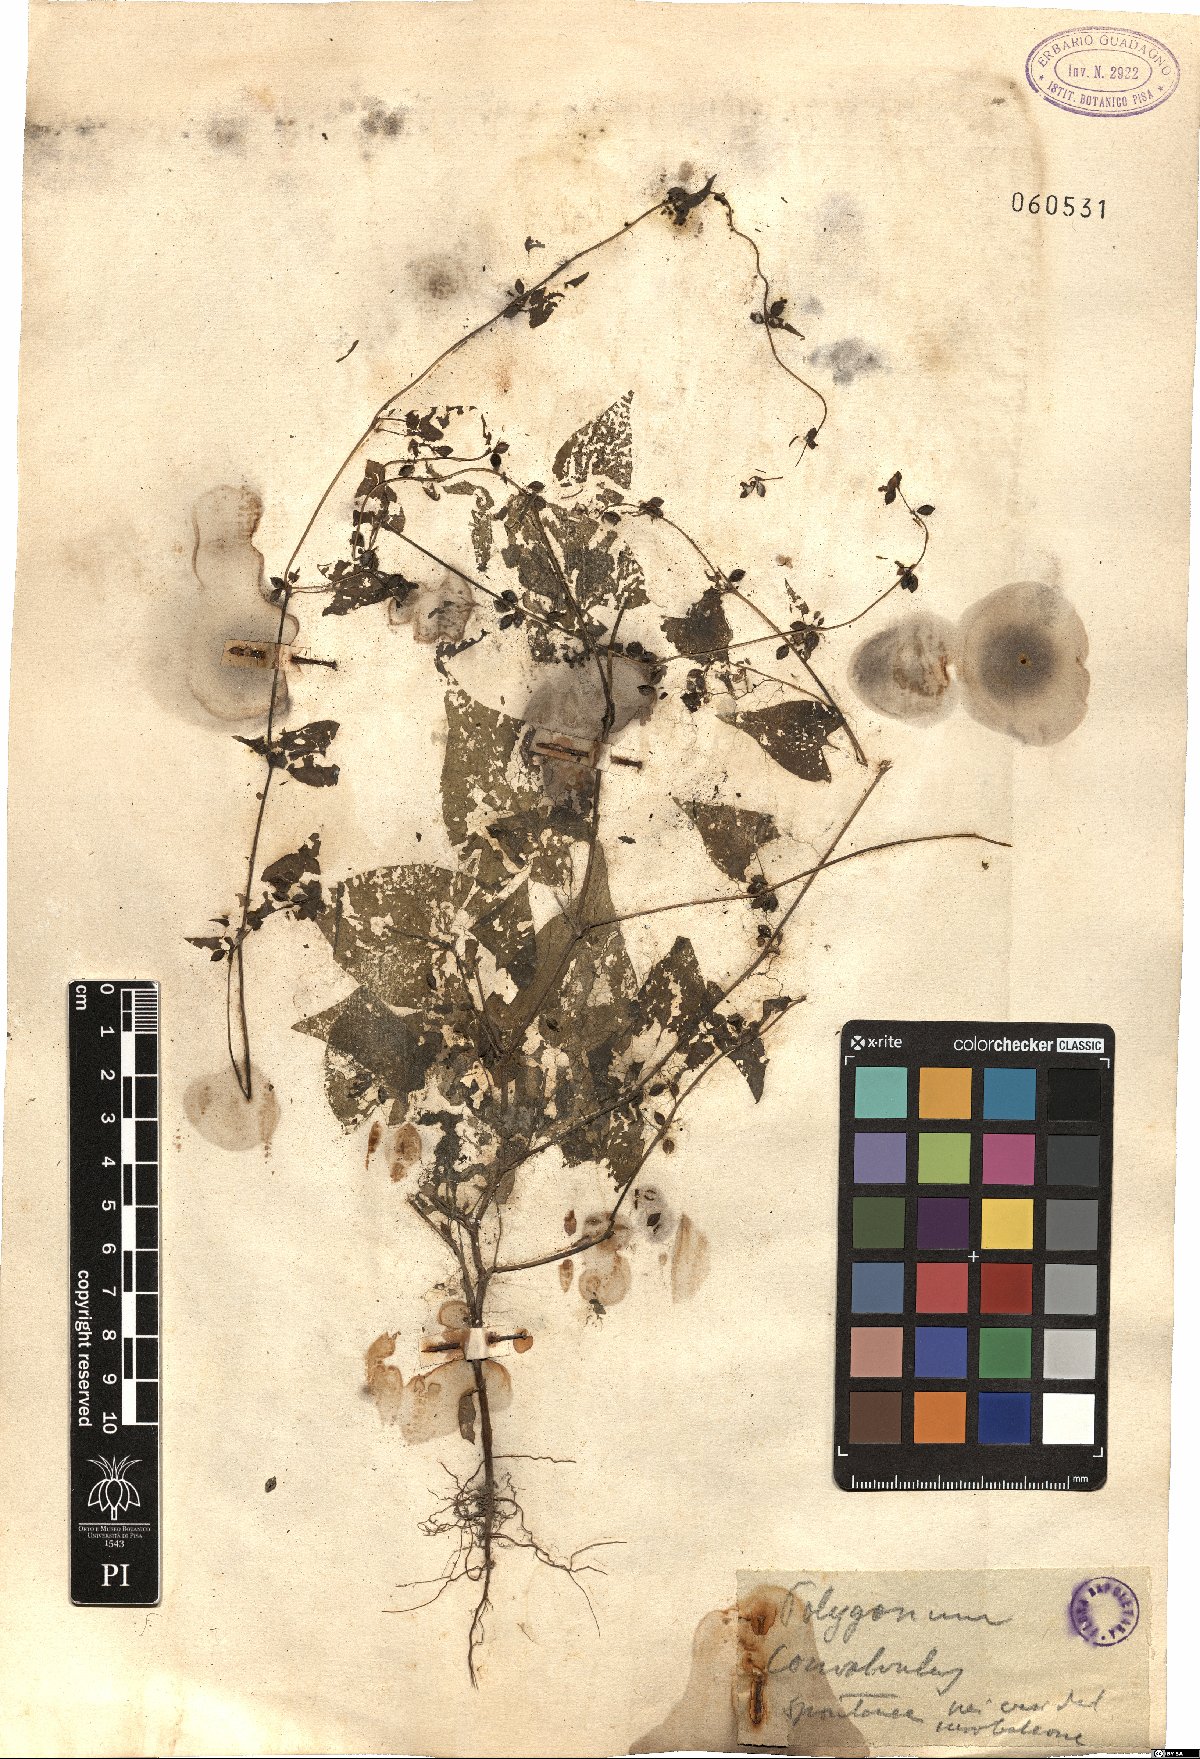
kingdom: Plantae
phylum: Tracheophyta
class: Magnoliopsida
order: Caryophyllales
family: Polygonaceae
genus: Fallopia
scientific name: Fallopia convolvulus
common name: Black bindweed
